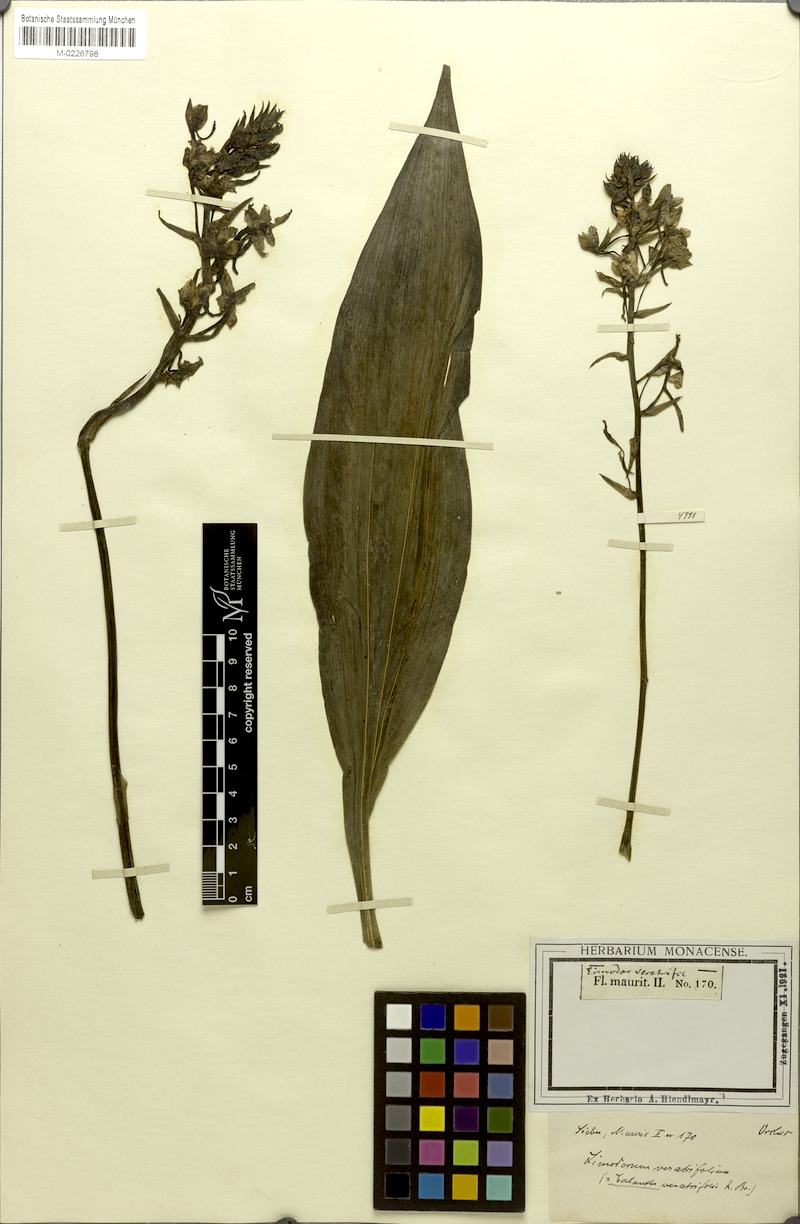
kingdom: Plantae
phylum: Tracheophyta
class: Liliopsida
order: Asparagales
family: Orchidaceae
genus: Calanthe
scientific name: Calanthe triplicata
